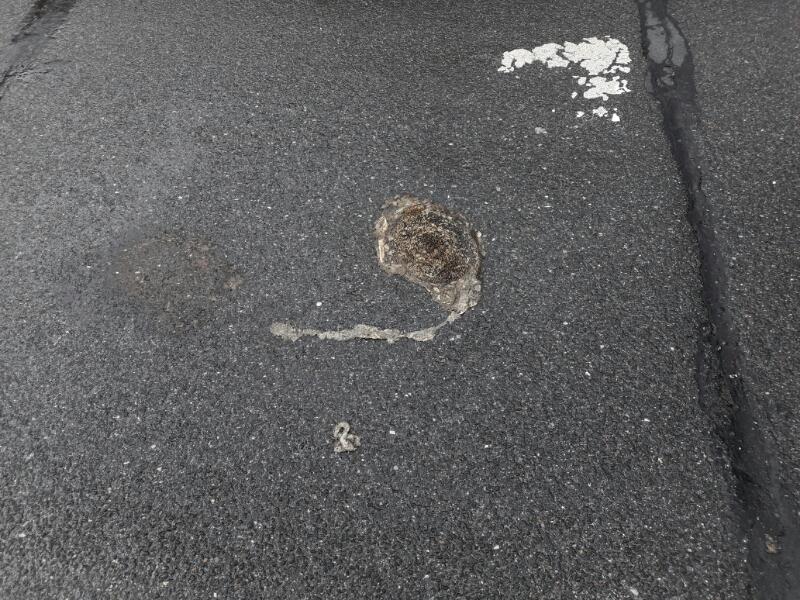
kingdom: Animalia
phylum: Chordata
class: Mammalia
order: Erinaceomorpha
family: Erinaceidae
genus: Erinaceus
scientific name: Erinaceus
